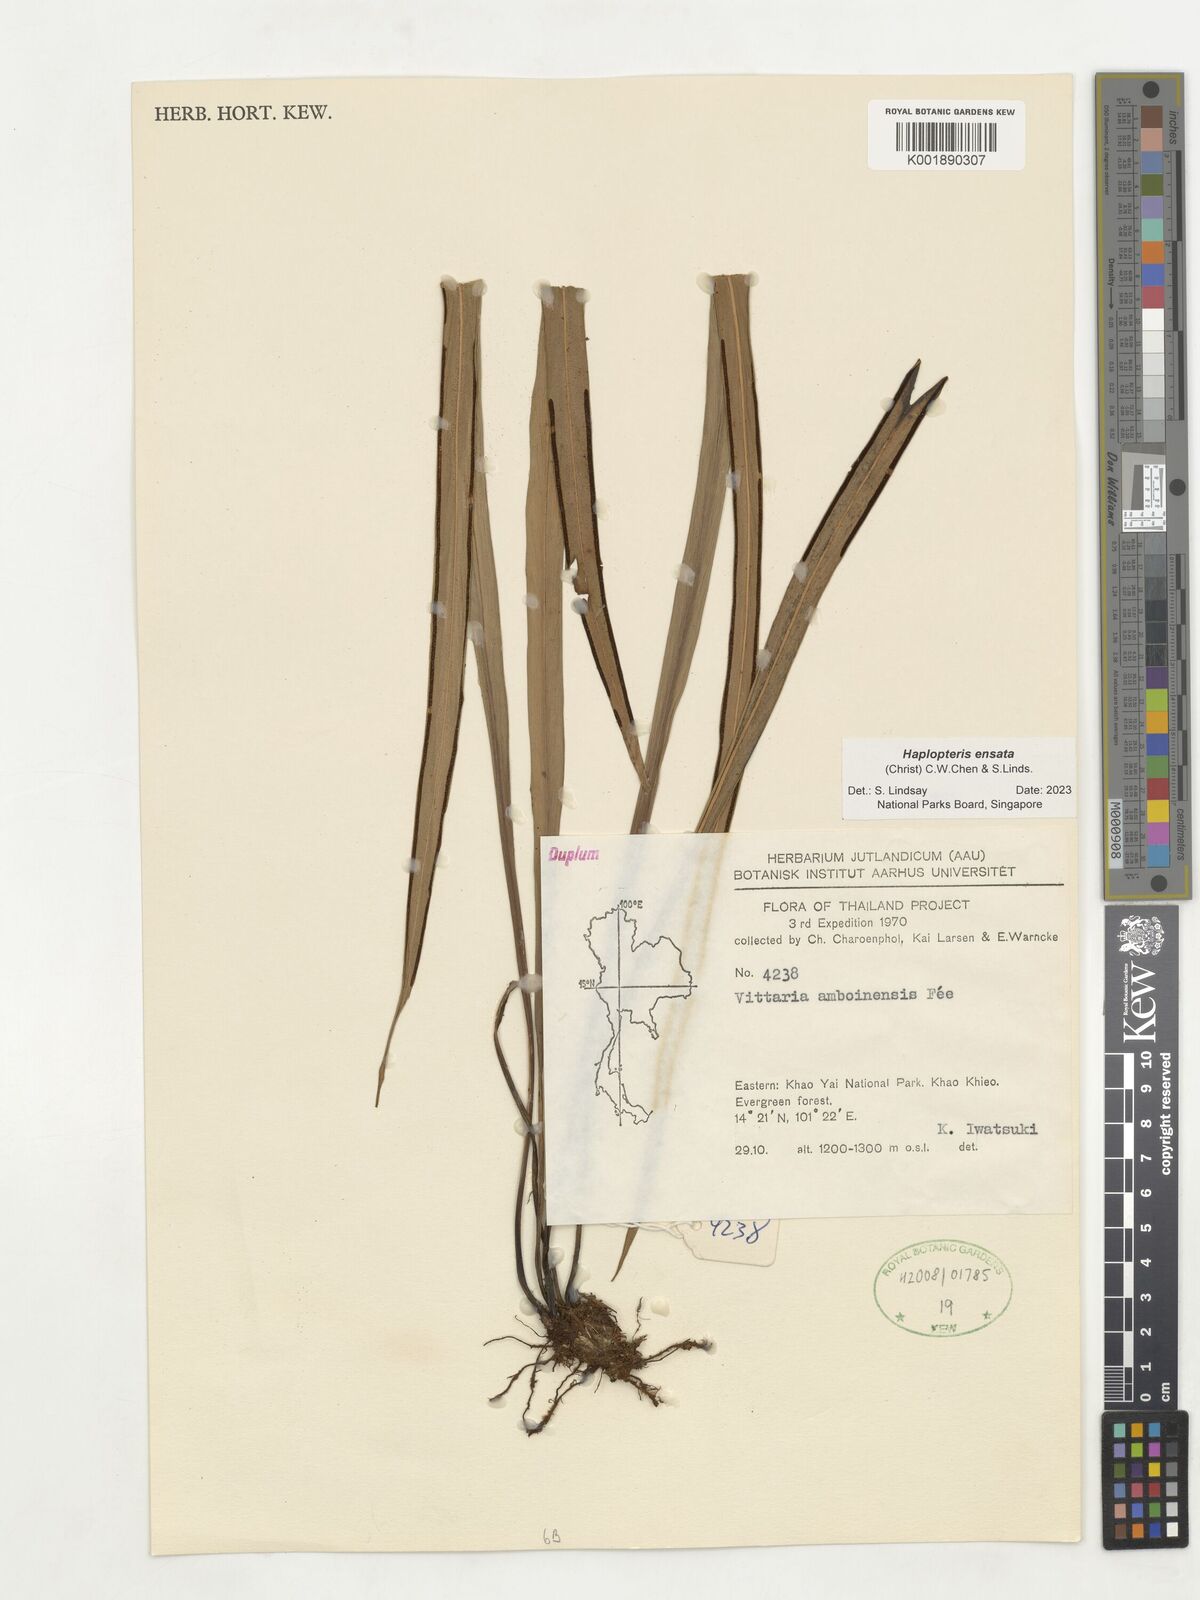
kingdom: Plantae
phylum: Tracheophyta
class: Polypodiopsida
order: Polypodiales
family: Pteridaceae
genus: Haplopteris
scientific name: Haplopteris ensata
